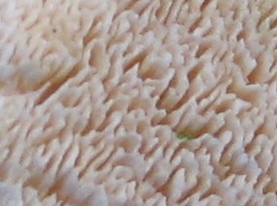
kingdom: Fungi
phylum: Basidiomycota
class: Agaricomycetes
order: Hymenochaetales
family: Schizoporaceae
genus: Xylodon
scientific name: Xylodon subtropicus
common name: labyrint-tandsvamp
